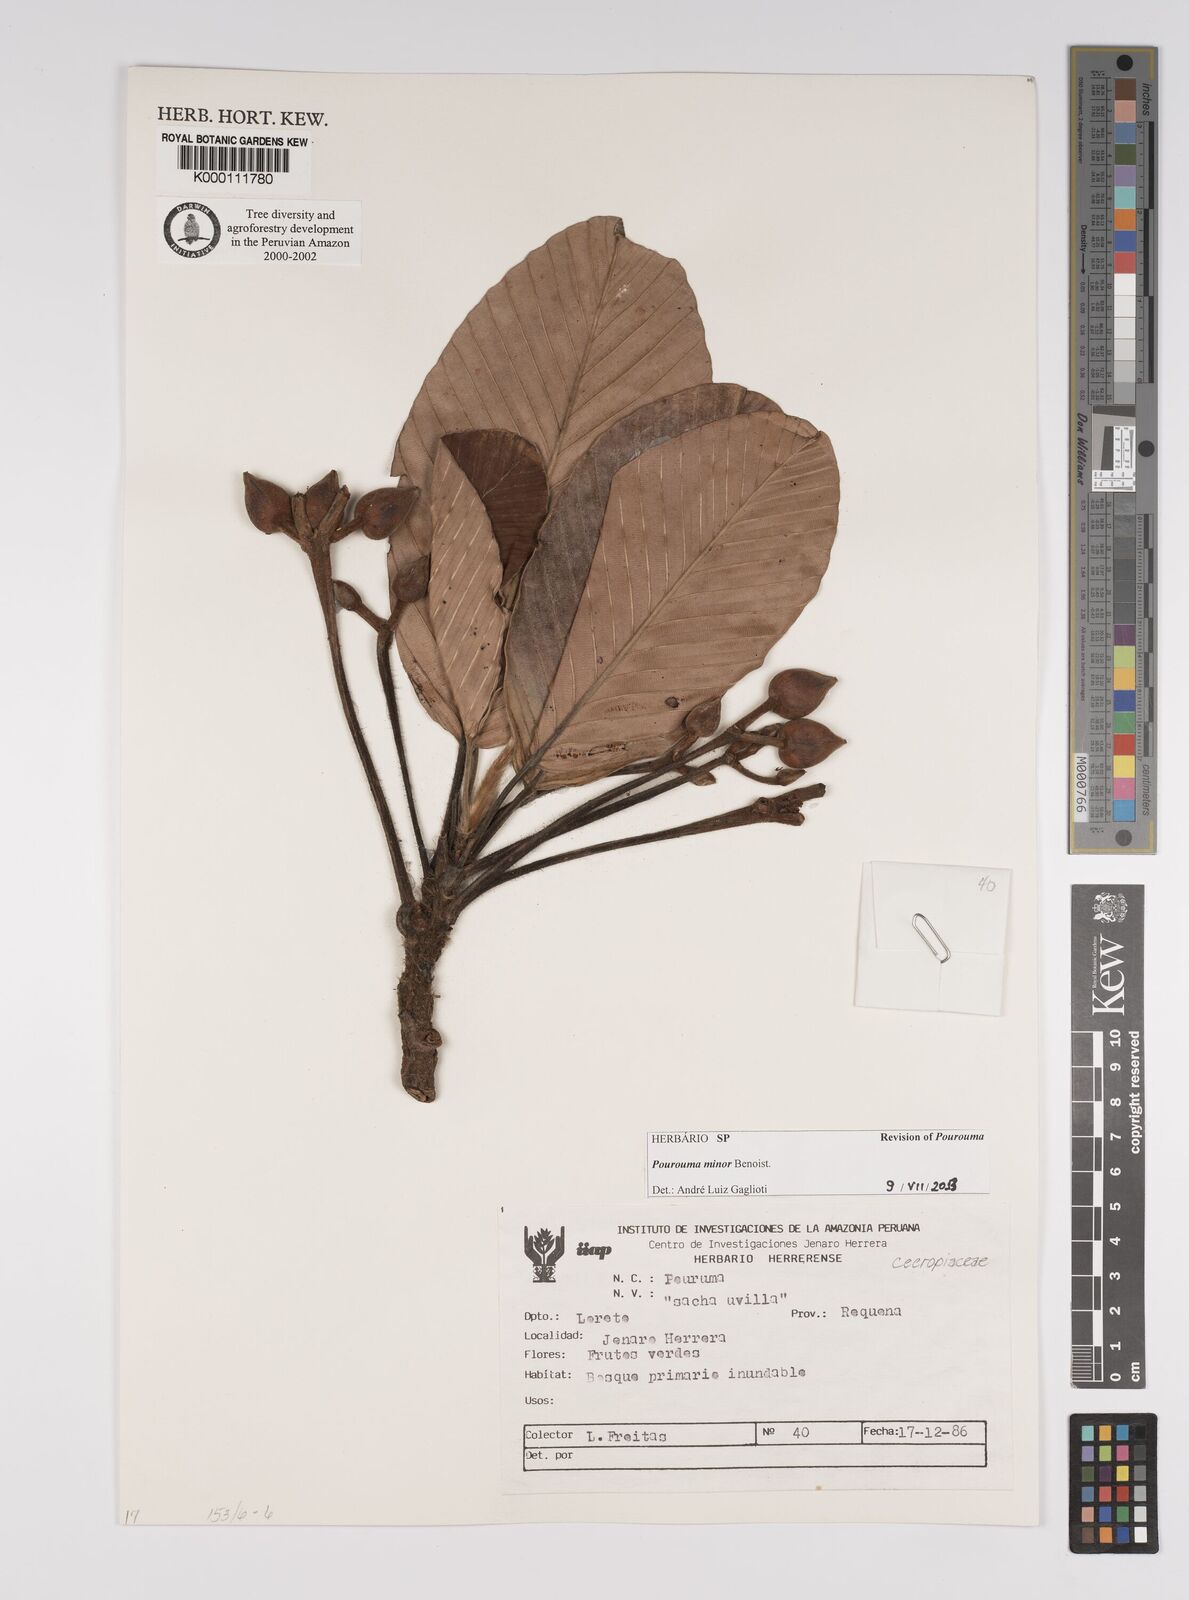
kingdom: Plantae
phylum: Tracheophyta
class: Magnoliopsida
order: Rosales
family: Urticaceae
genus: Pourouma
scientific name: Pourouma minor
